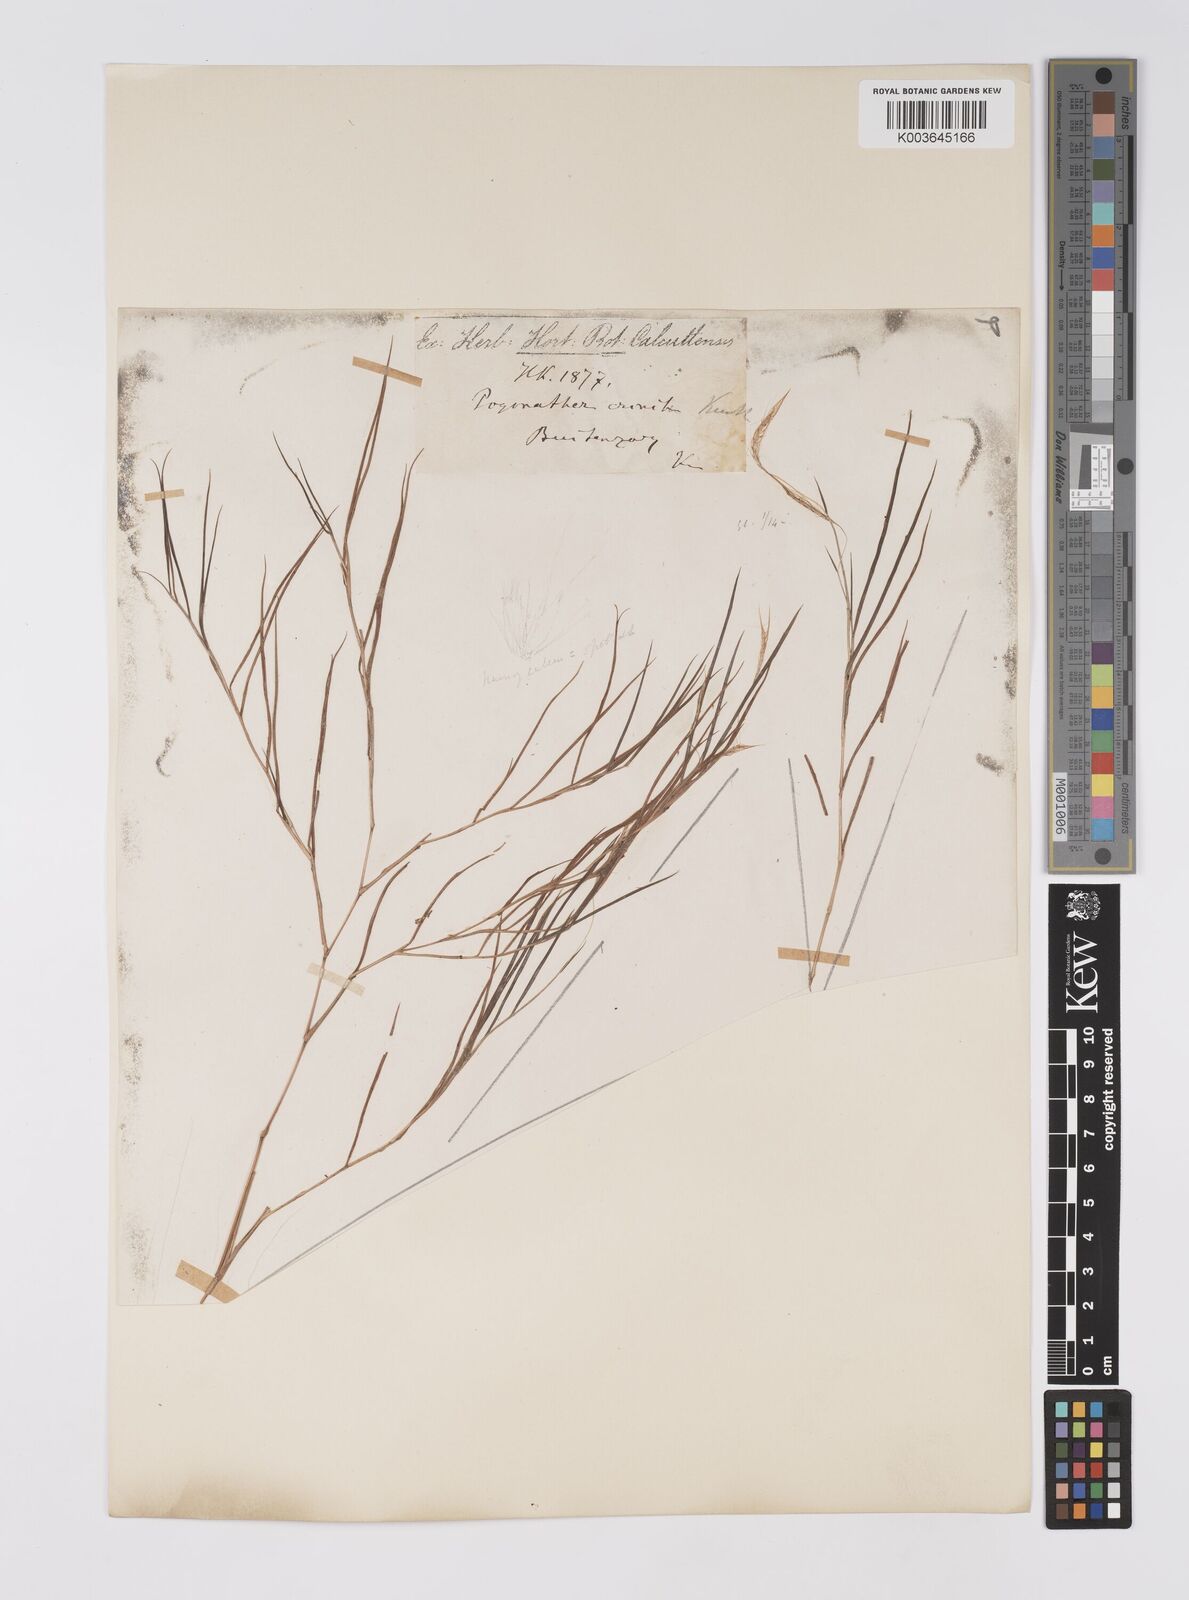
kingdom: Plantae
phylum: Tracheophyta
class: Liliopsida
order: Poales
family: Poaceae
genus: Pogonatherum
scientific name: Pogonatherum crinitum
